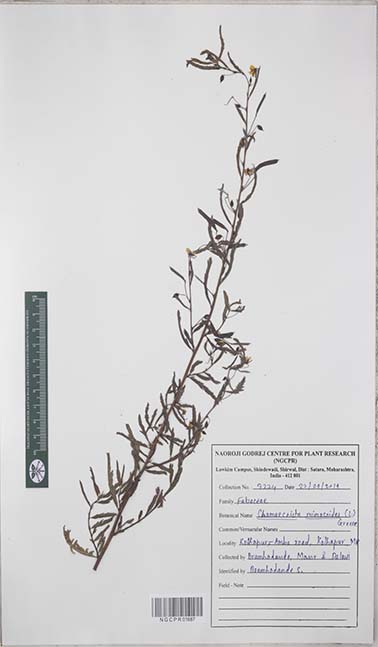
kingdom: Plantae
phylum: Tracheophyta
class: Magnoliopsida
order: Fabales
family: Fabaceae
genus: Chamaecrista
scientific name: Chamaecrista mimosoides
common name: Fish-bone cassia
